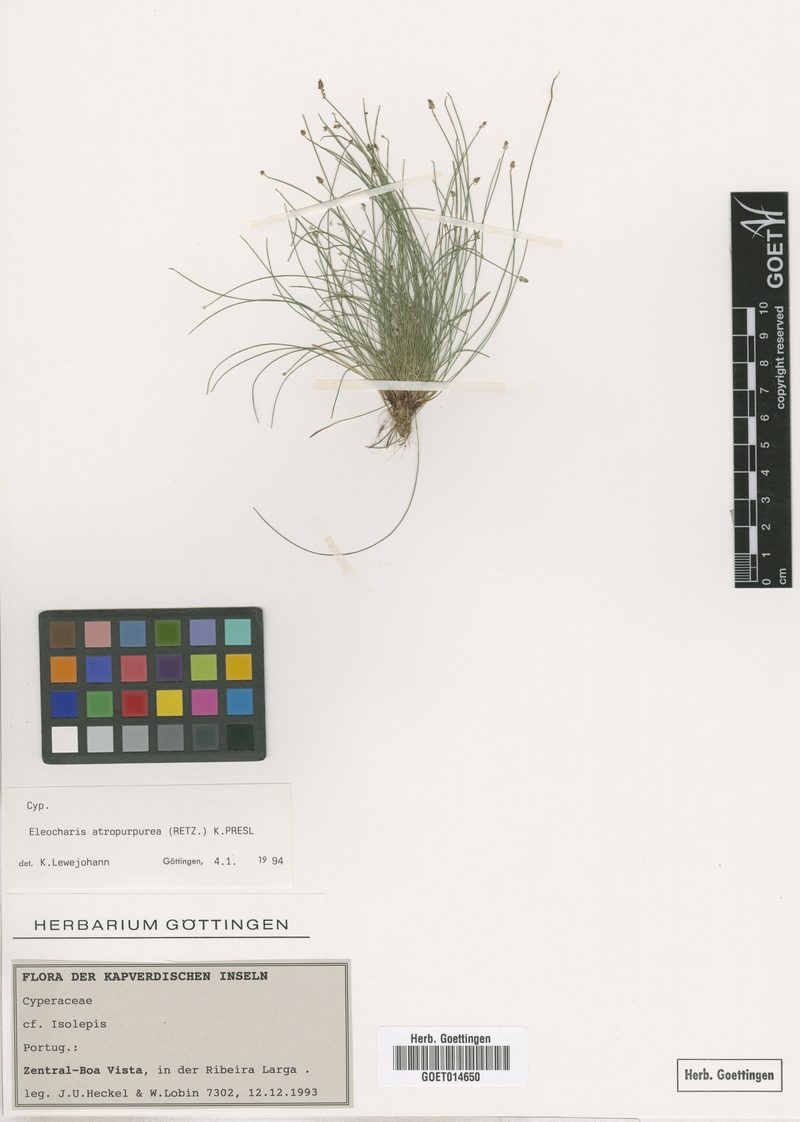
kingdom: Plantae
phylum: Tracheophyta
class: Liliopsida
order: Poales
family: Cyperaceae
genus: Eleocharis
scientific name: Eleocharis atropurpurea
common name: Purple spikerush
